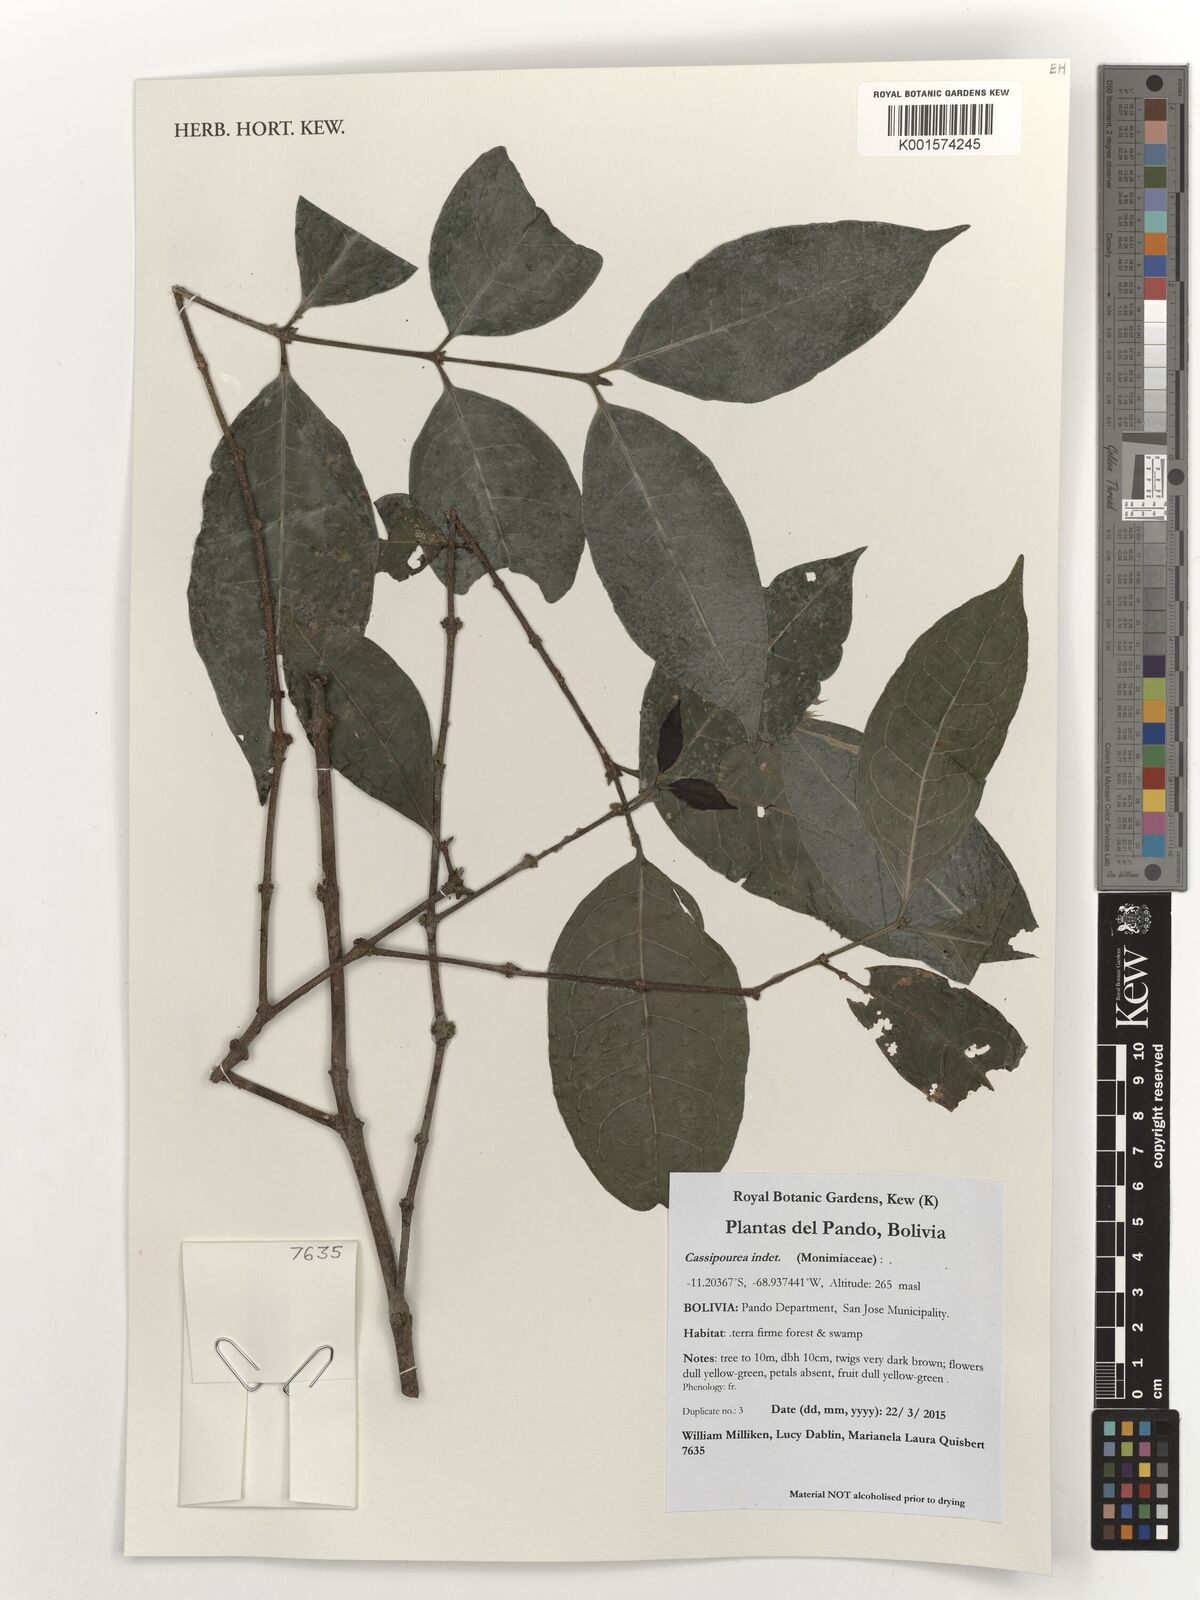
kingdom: Plantae
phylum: Tracheophyta
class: Magnoliopsida
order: Malpighiales
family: Rhizophoraceae
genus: Cassipourea
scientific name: Cassipourea
